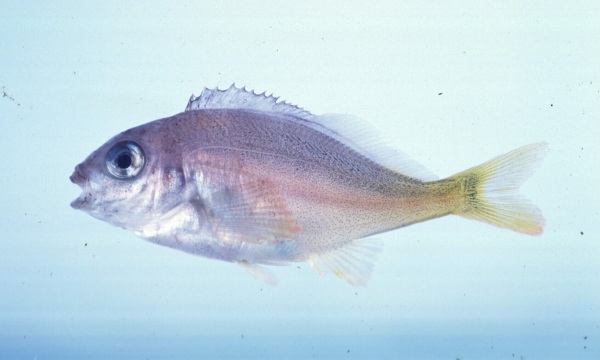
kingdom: Animalia
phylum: Chordata
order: Perciformes
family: Cheilodactylidae
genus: Chirodactylus
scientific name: Chirodactylus jessicalenorum
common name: Natal fingerfin
